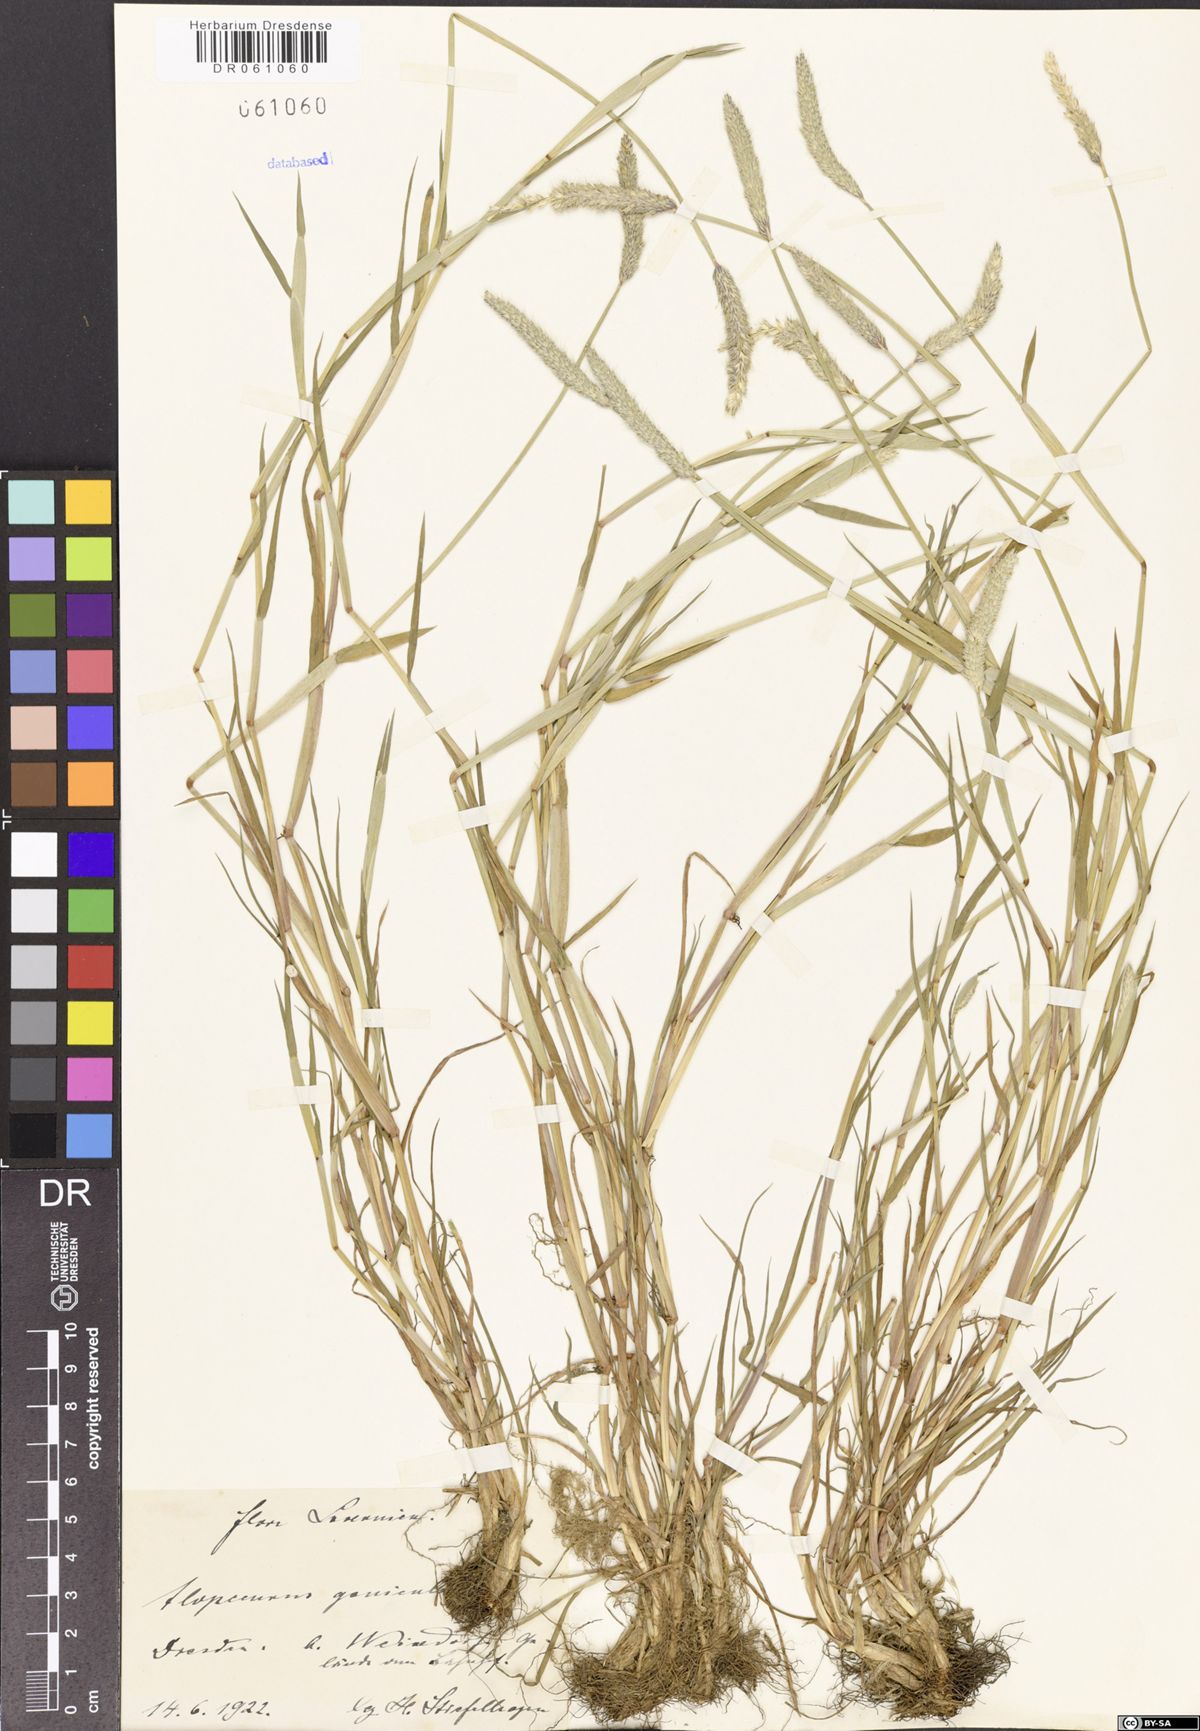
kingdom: Plantae
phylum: Tracheophyta
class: Liliopsida
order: Poales
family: Poaceae
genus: Alopecurus
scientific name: Alopecurus geniculatus
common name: Water foxtail
